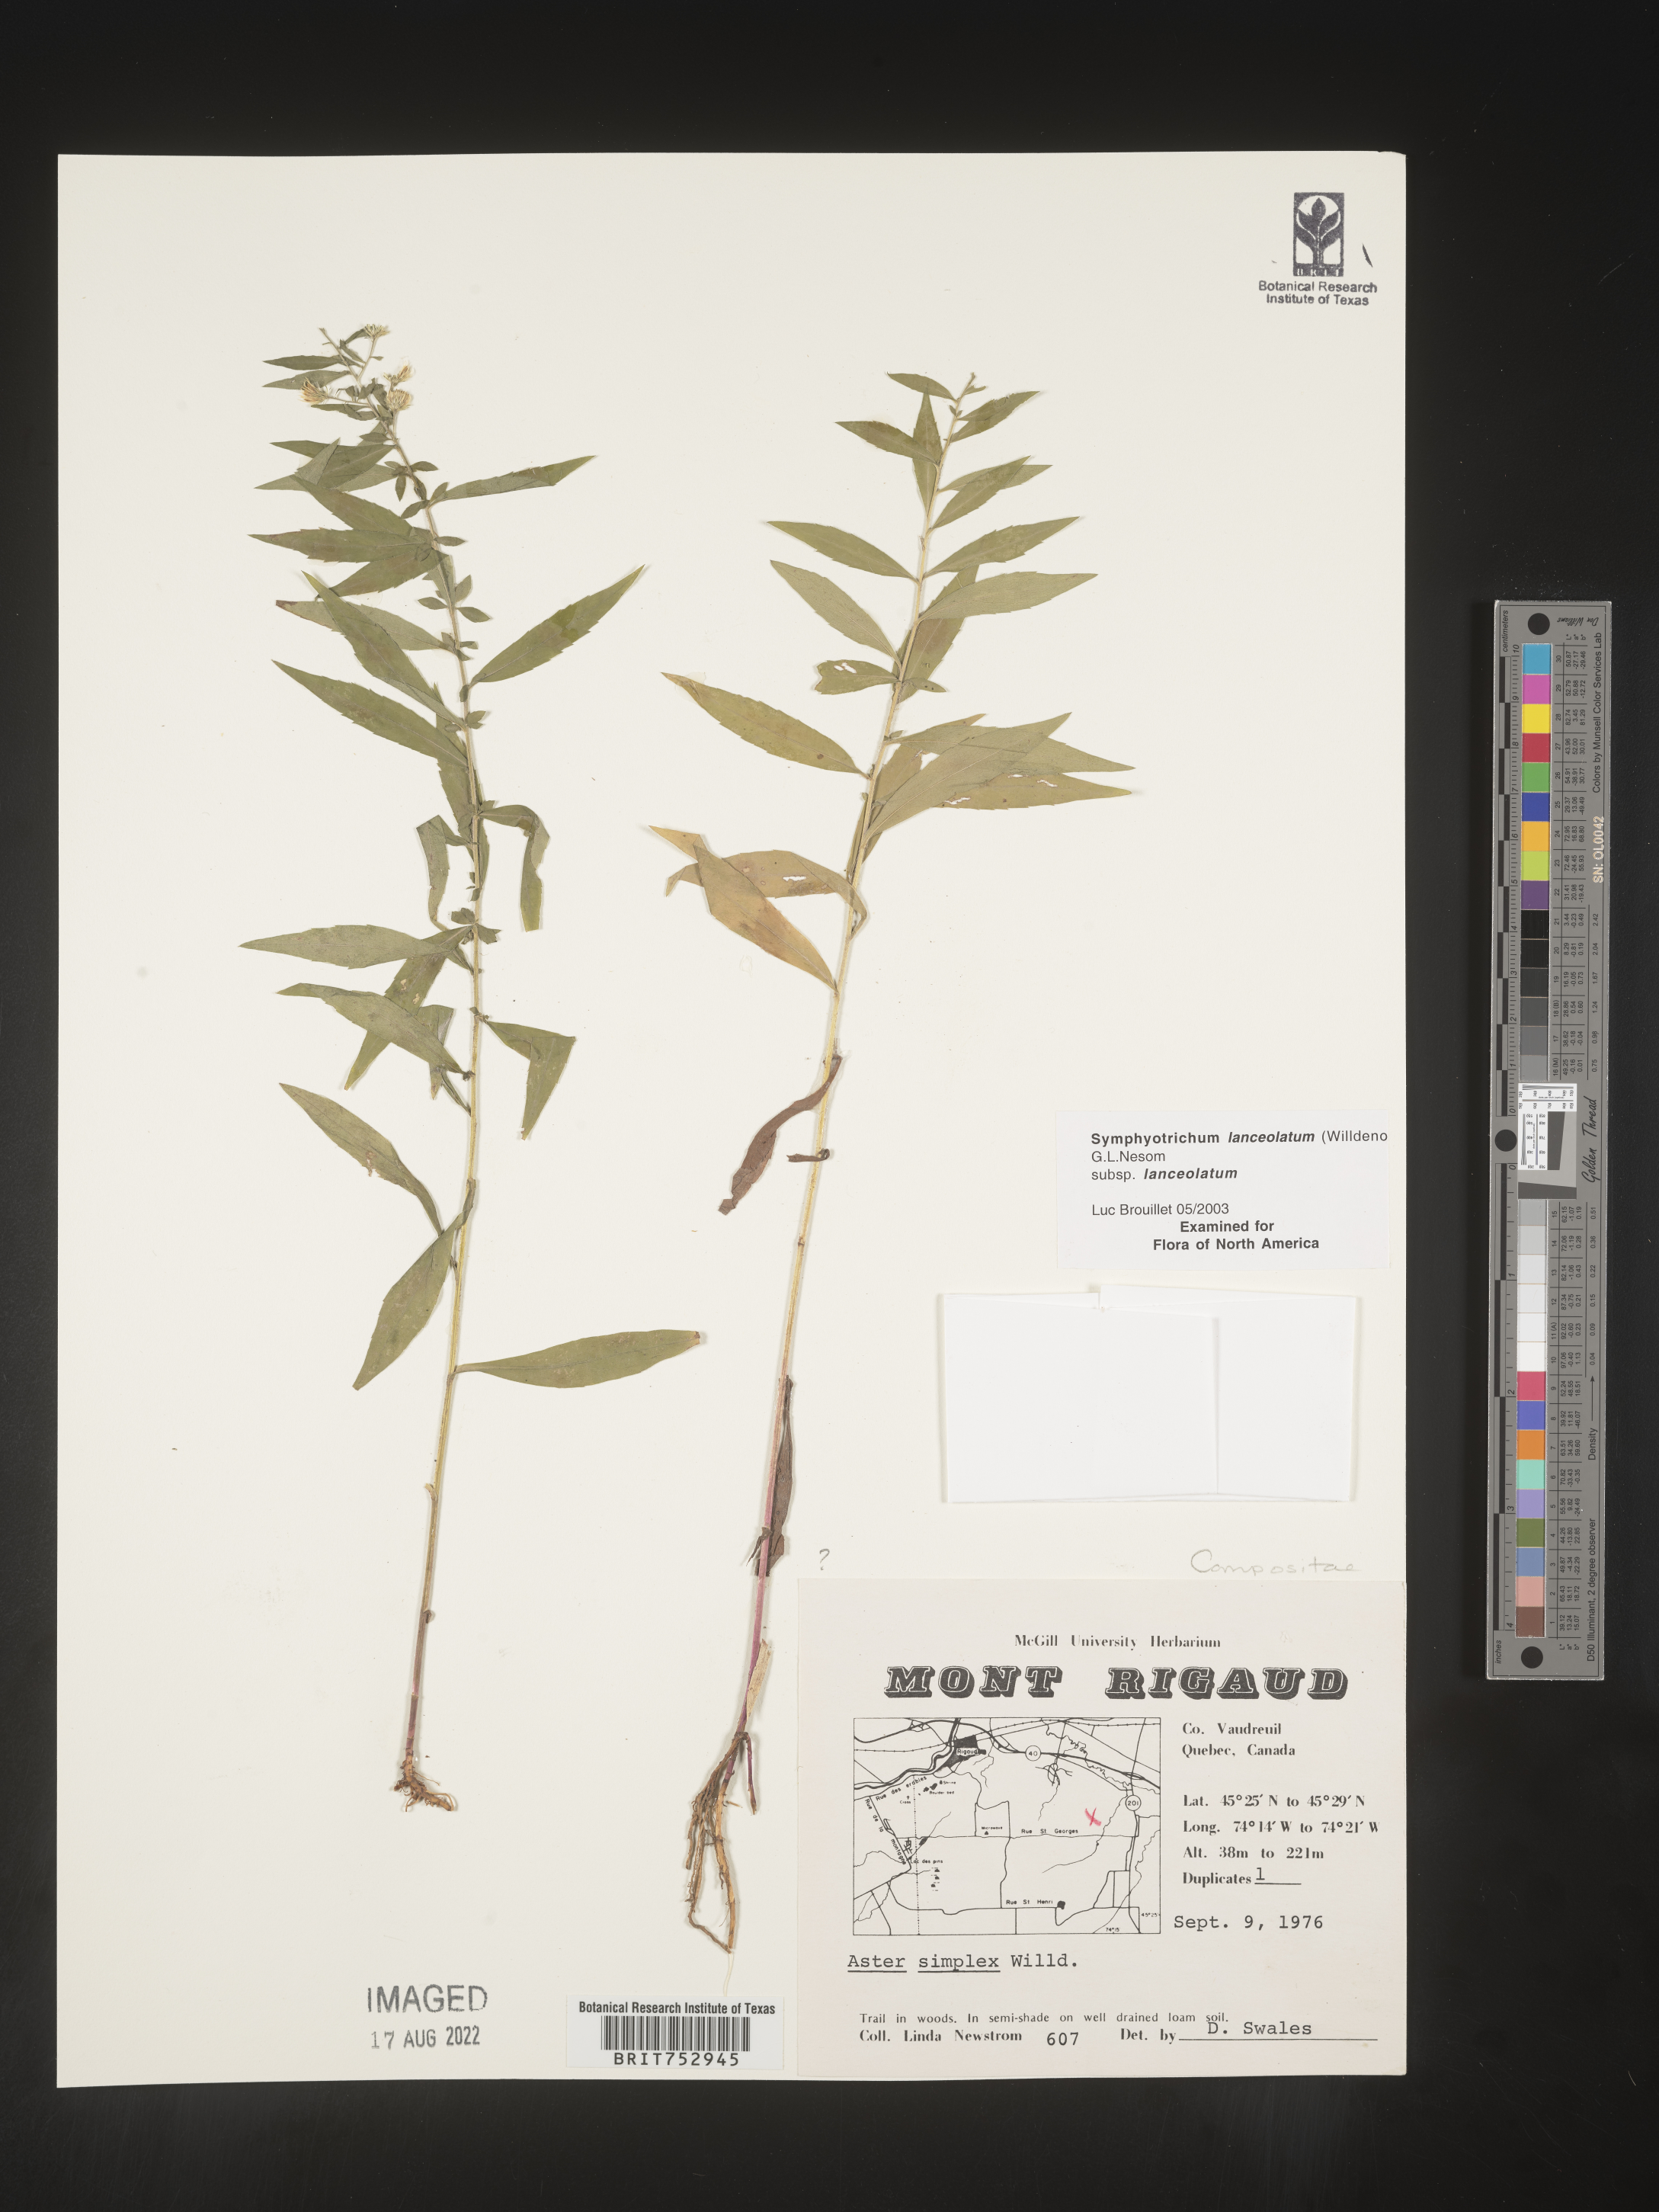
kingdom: Plantae
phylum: Tracheophyta
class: Magnoliopsida
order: Asterales
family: Asteraceae
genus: Symphyotrichum
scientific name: Symphyotrichum lanceolatum
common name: Panicled aster
